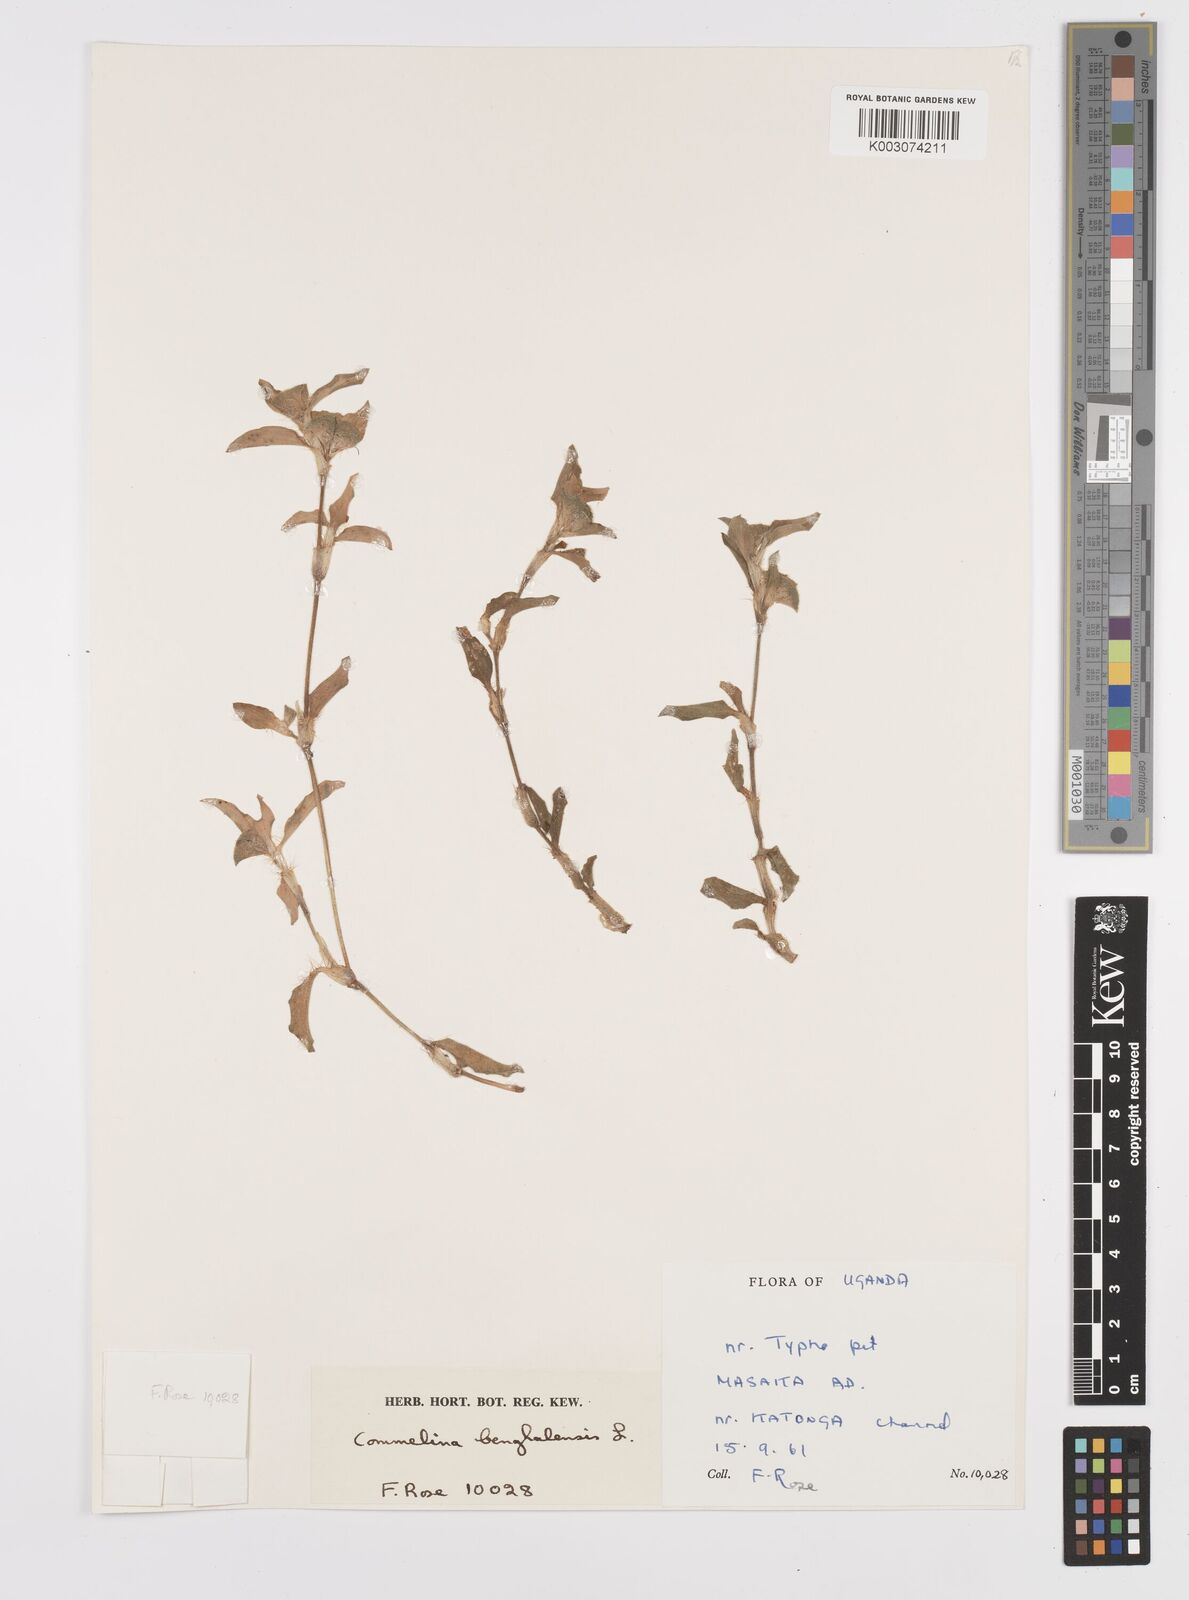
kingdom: Plantae
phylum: Tracheophyta
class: Liliopsida
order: Commelinales
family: Commelinaceae
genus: Commelina
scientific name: Commelina benghalensis
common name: Jio
